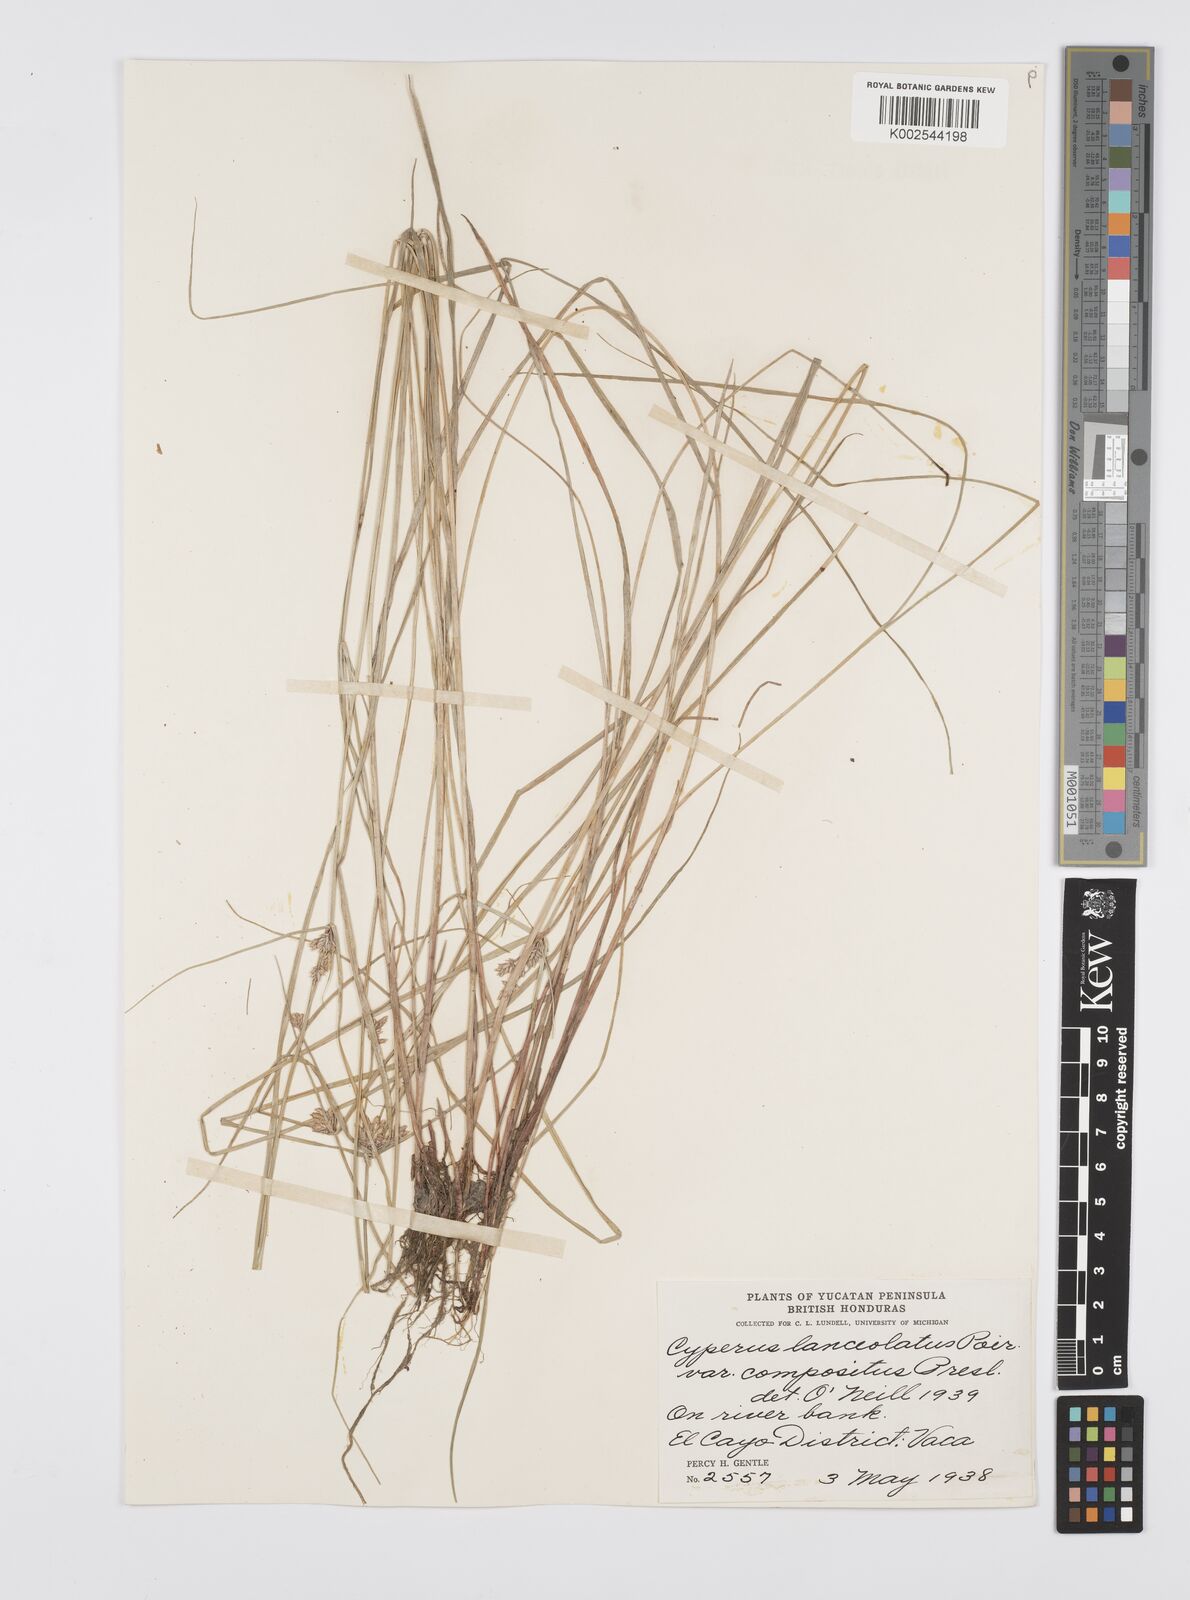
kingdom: Plantae
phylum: Tracheophyta
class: Liliopsida
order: Poales
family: Cyperaceae
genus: Cyperus
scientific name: Cyperus
